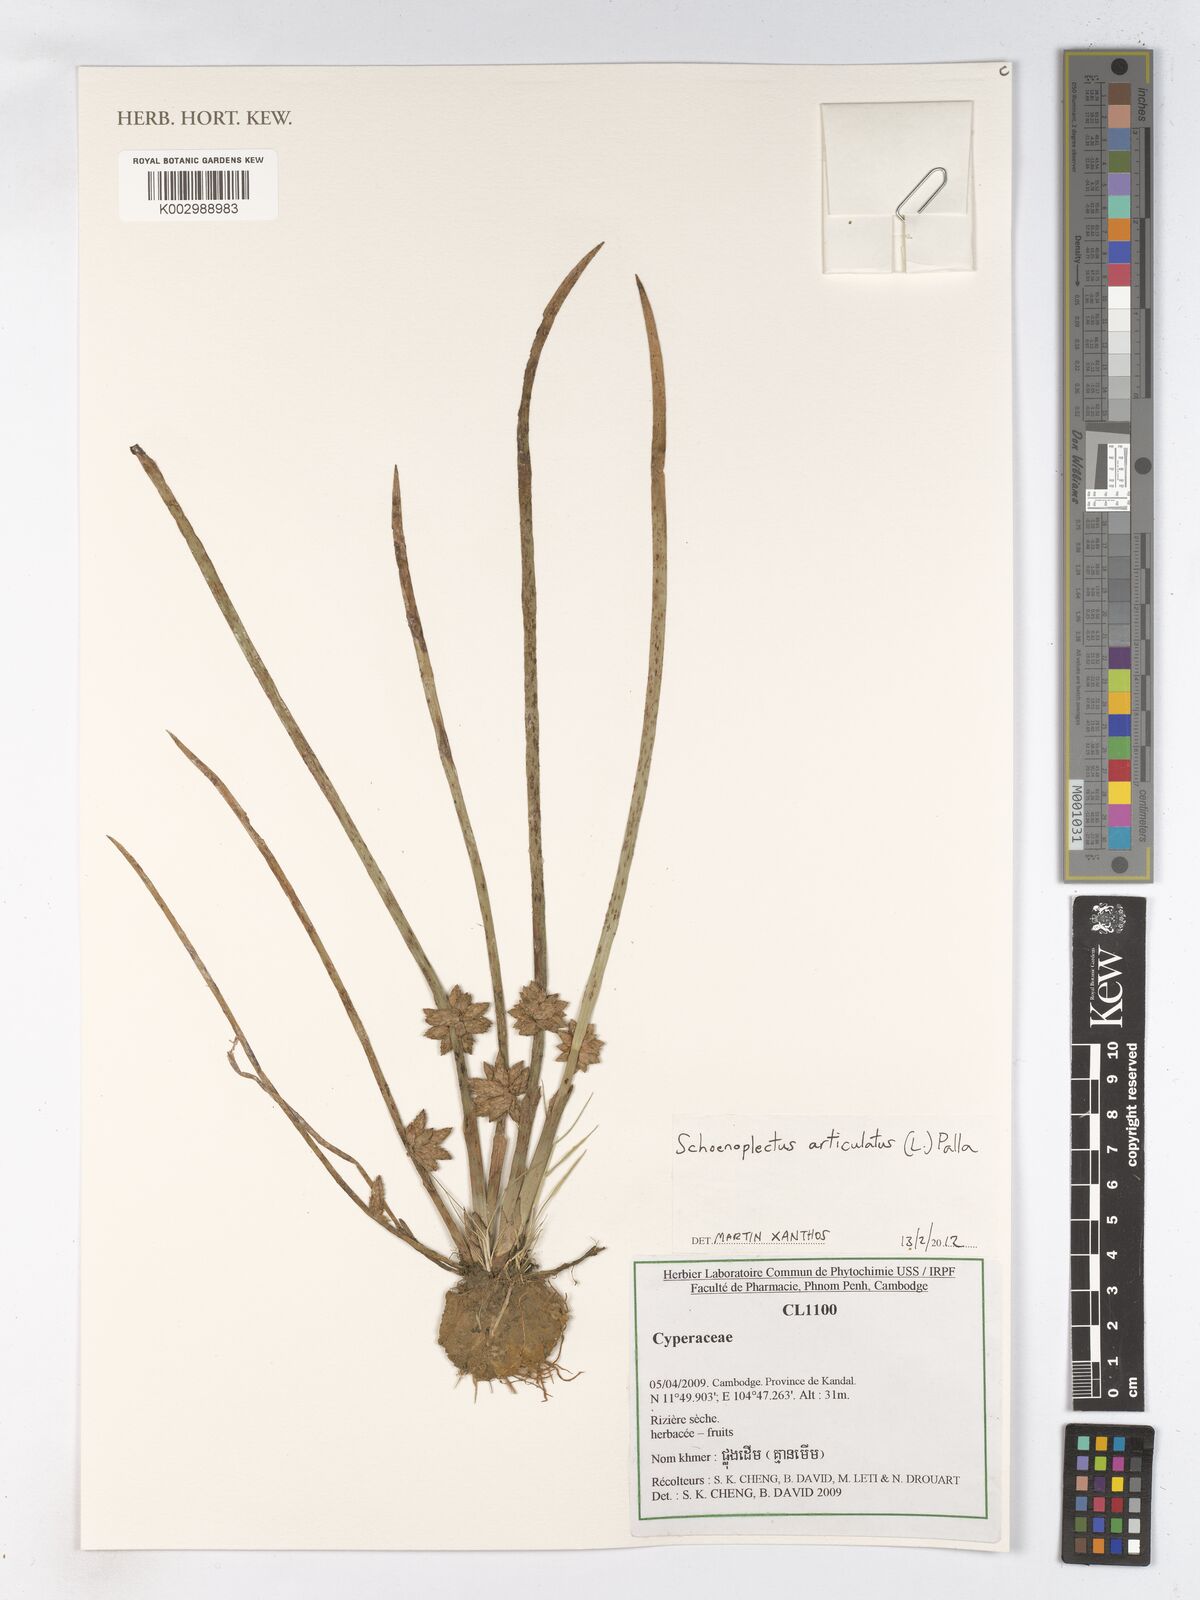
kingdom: Plantae
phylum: Tracheophyta
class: Liliopsida
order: Poales
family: Cyperaceae
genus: Schoenoplectiella
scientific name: Schoenoplectiella articulata
